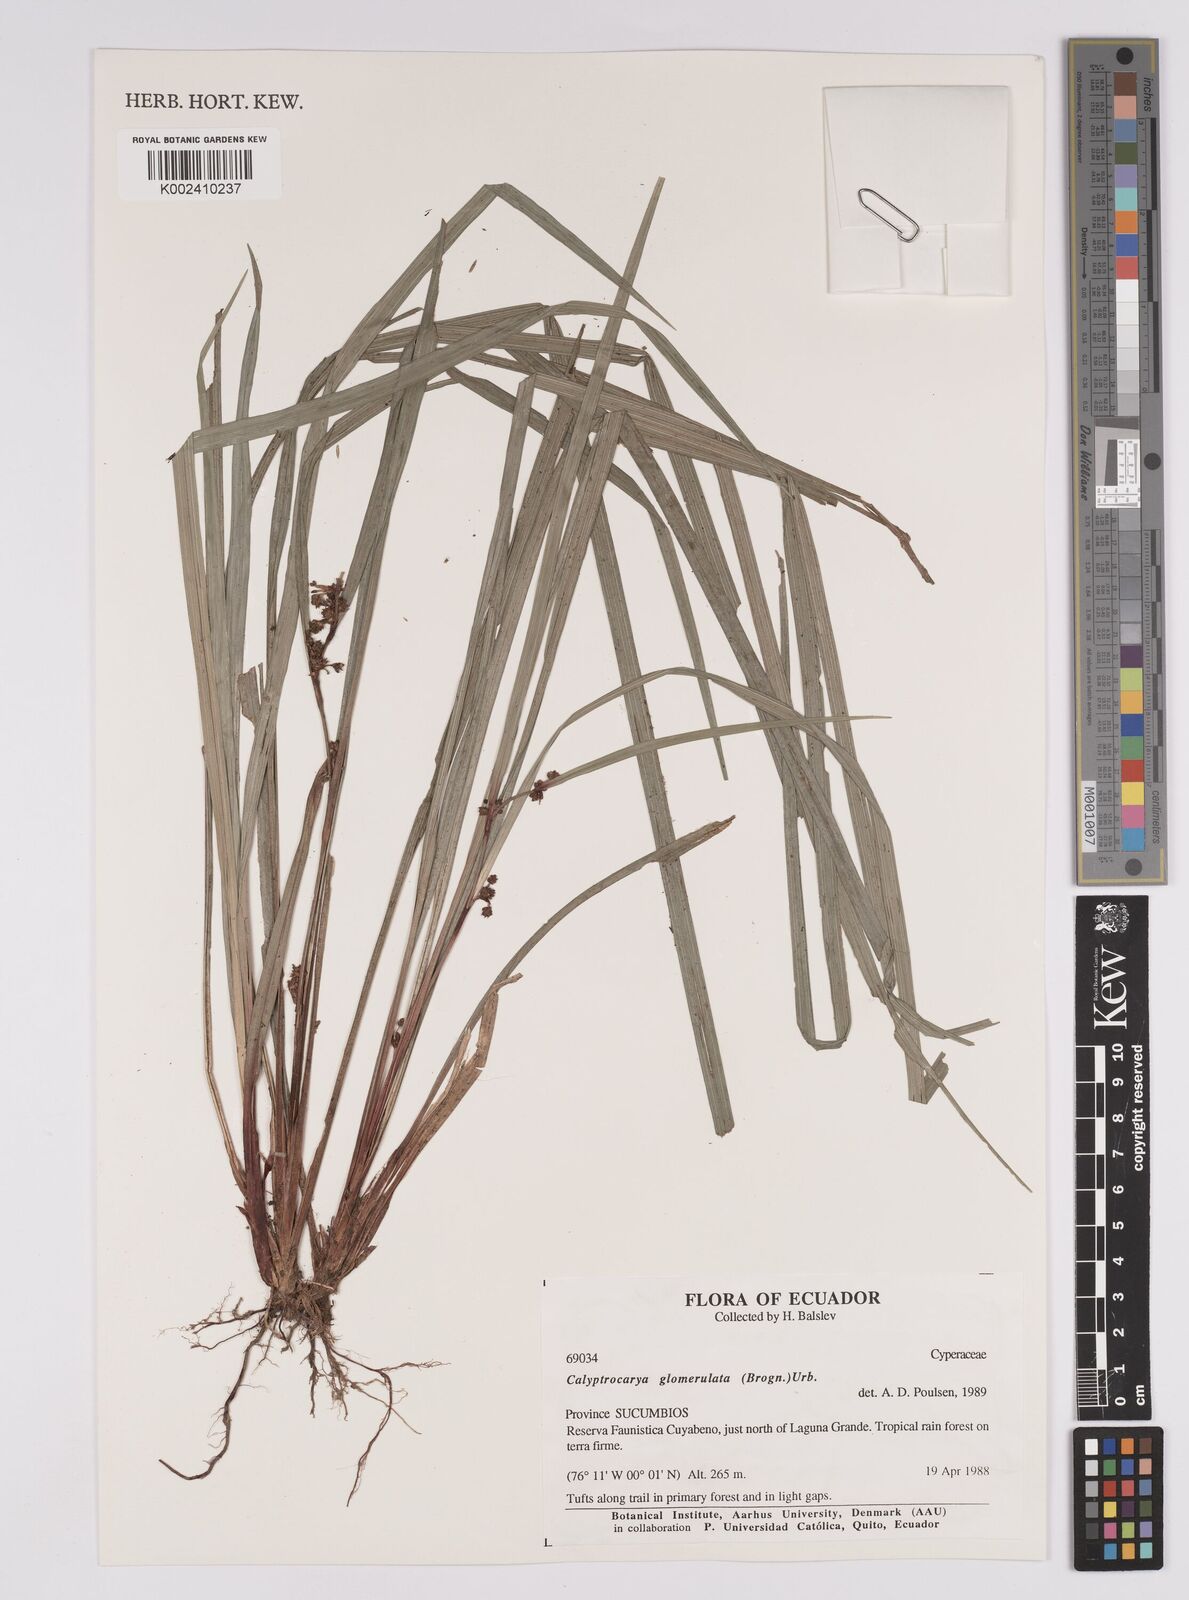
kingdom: Plantae
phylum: Tracheophyta
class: Liliopsida
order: Poales
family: Cyperaceae
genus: Calyptrocarya
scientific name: Calyptrocarya glomerulata
